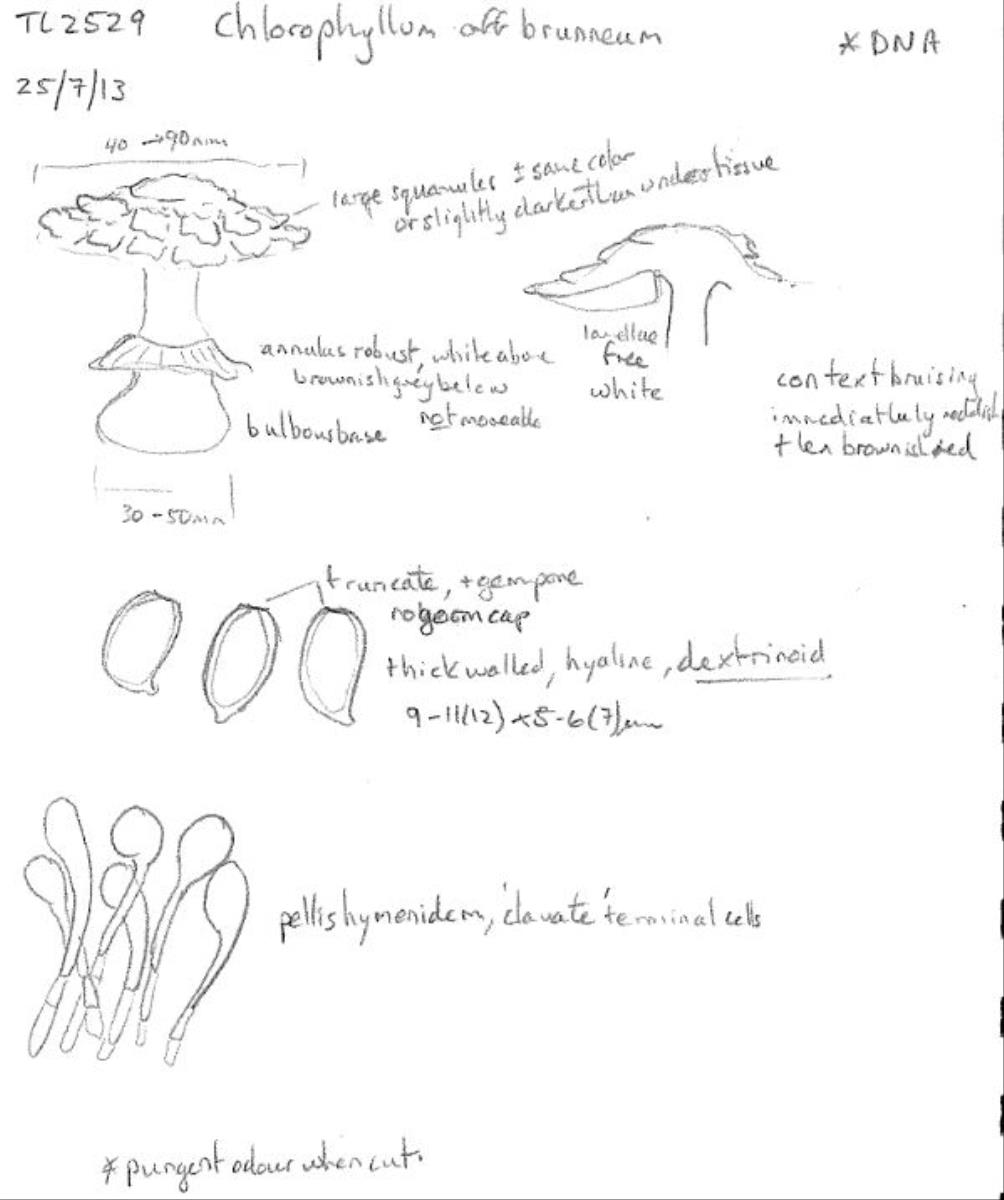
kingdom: Fungi
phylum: Basidiomycota
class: Agaricomycetes
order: Agaricales
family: Agaricaceae
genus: Chlorophyllum
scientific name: Chlorophyllum brunneum
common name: Brown parasol
